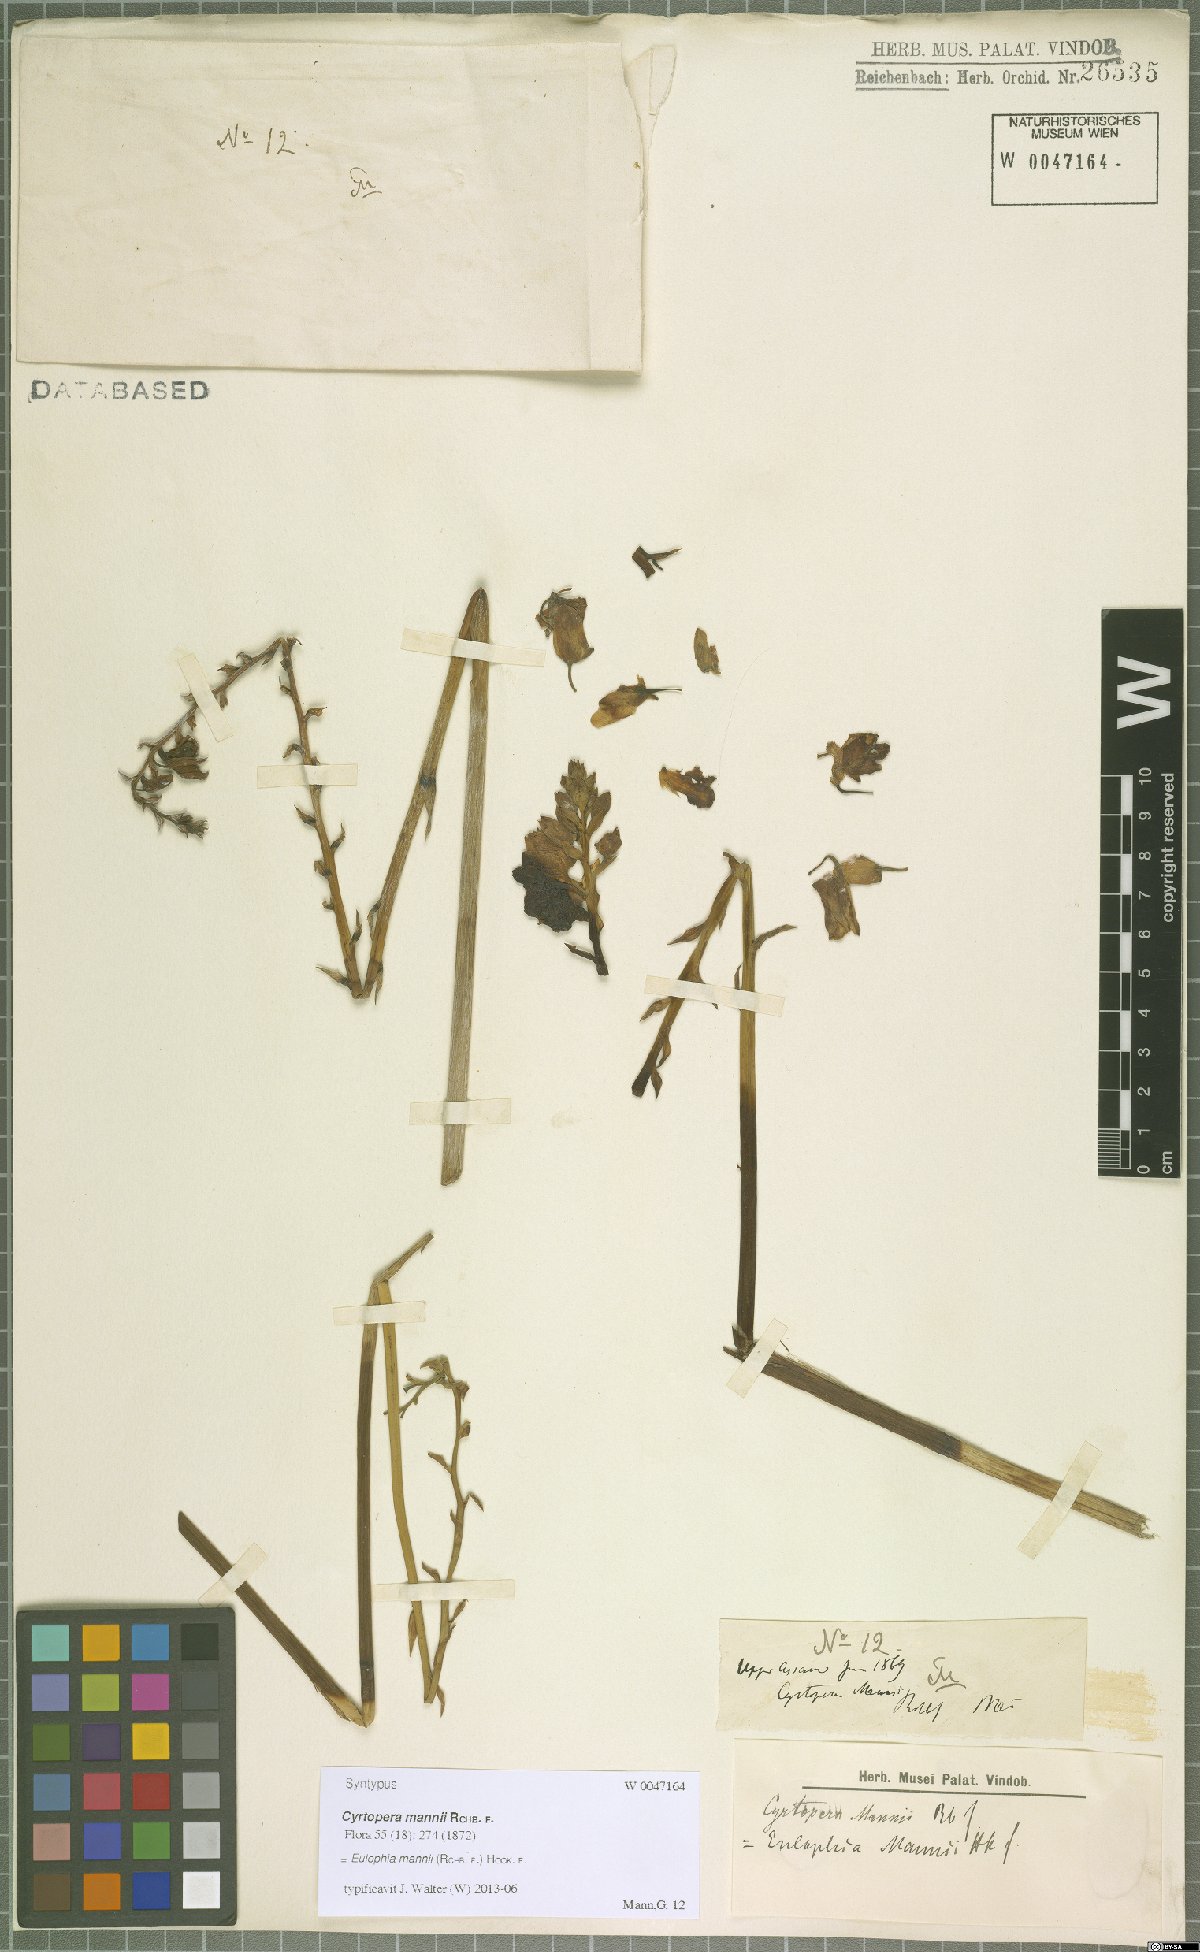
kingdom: Plantae
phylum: Tracheophyta
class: Liliopsida
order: Asparagales
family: Orchidaceae
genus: Eulophia
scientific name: Eulophia mannii
